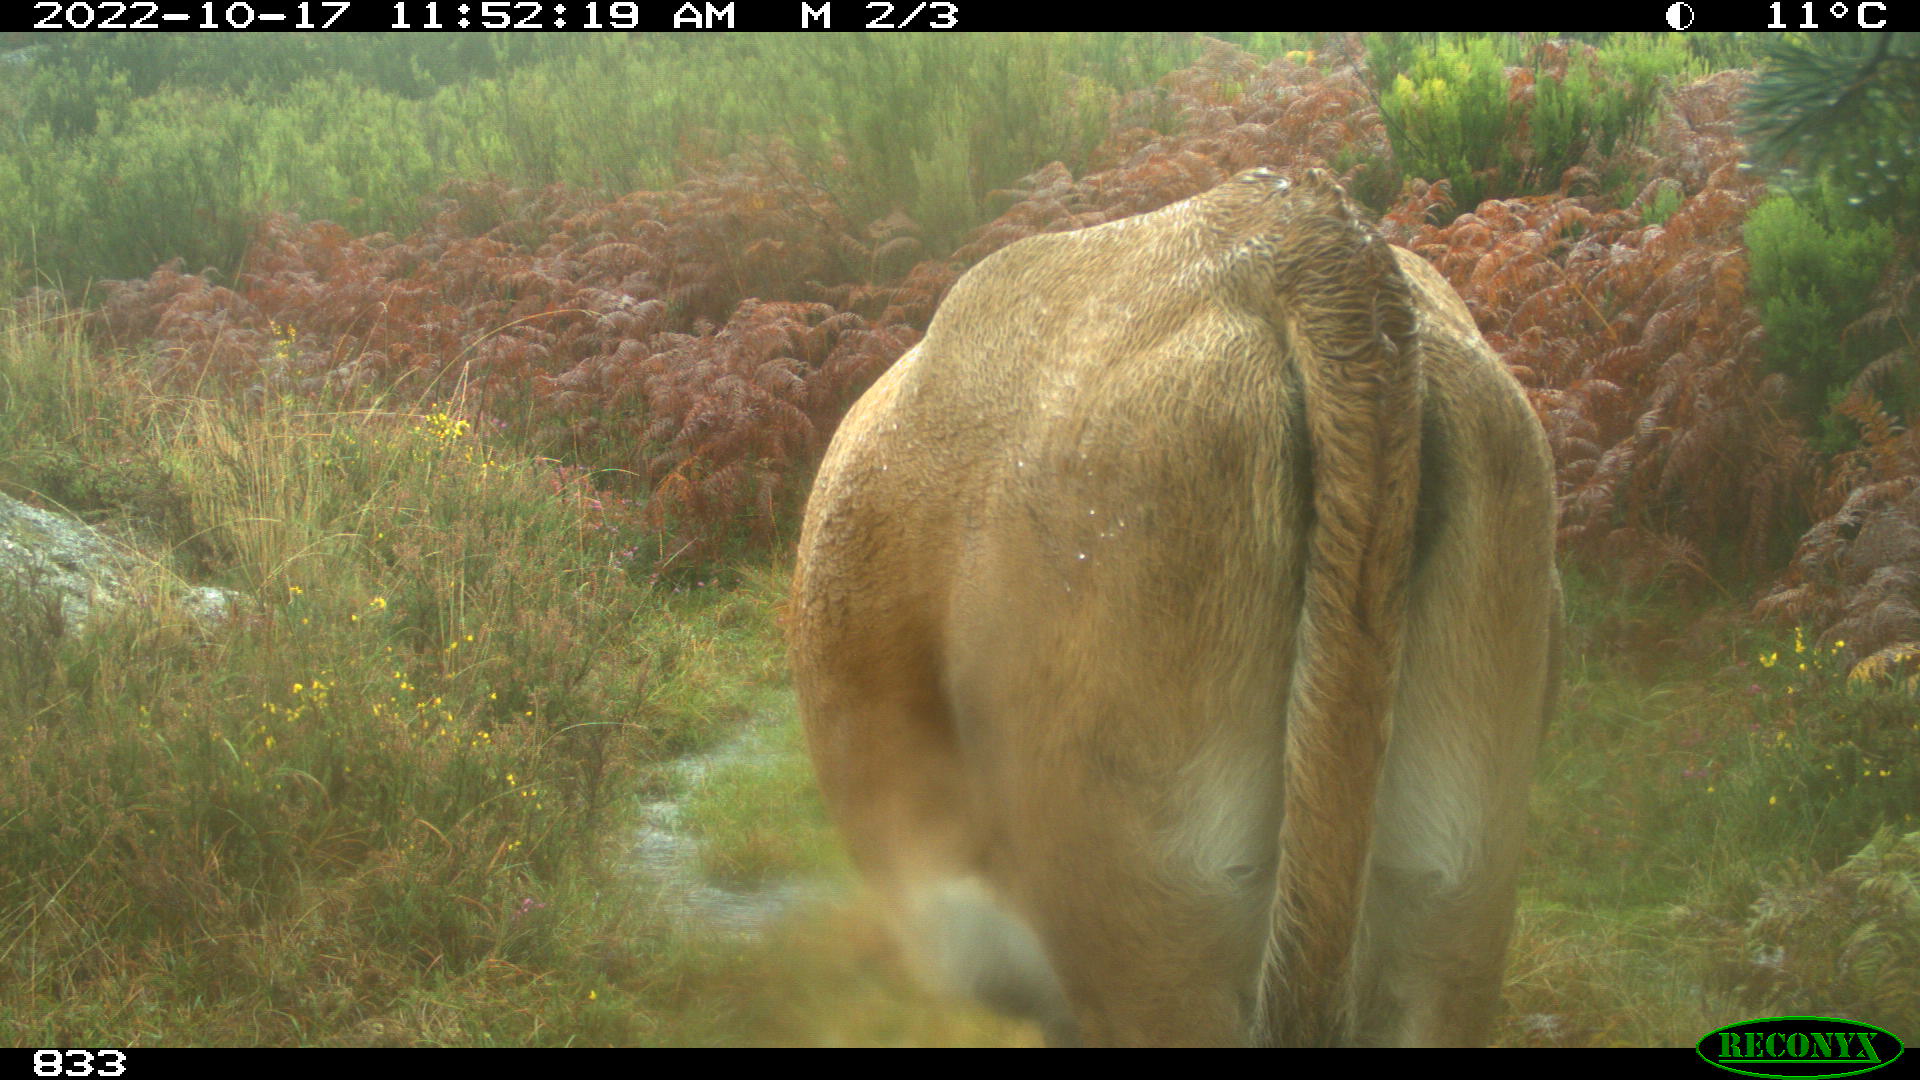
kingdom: Animalia
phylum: Chordata
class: Mammalia
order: Artiodactyla
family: Bovidae
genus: Bos
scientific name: Bos taurus
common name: Domesticated cattle
